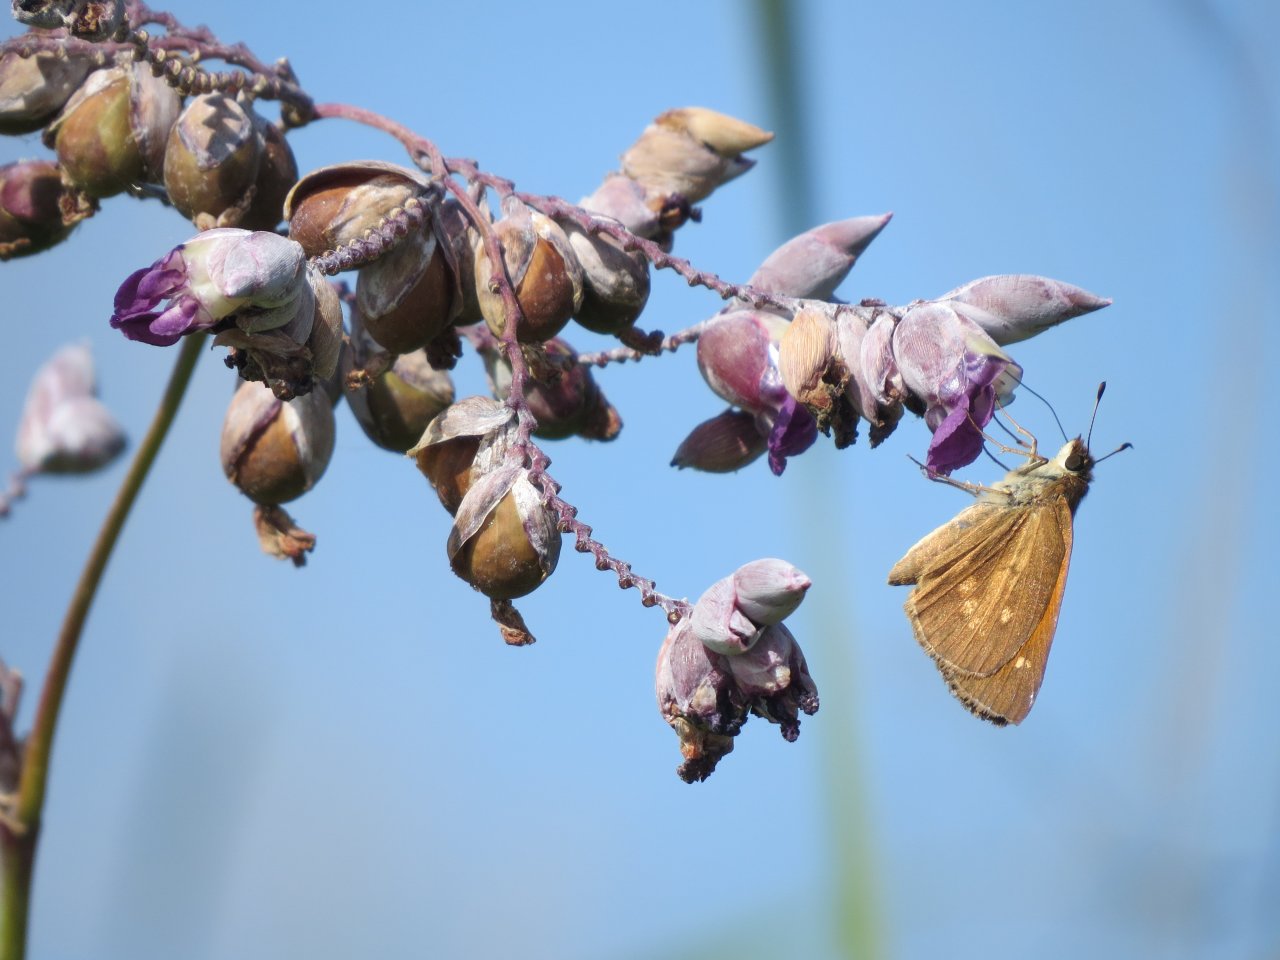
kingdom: Animalia
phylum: Arthropoda
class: Insecta
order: Lepidoptera
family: Hesperiidae
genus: Poanes
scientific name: Poanes viator
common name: Broad-winged Skipper
